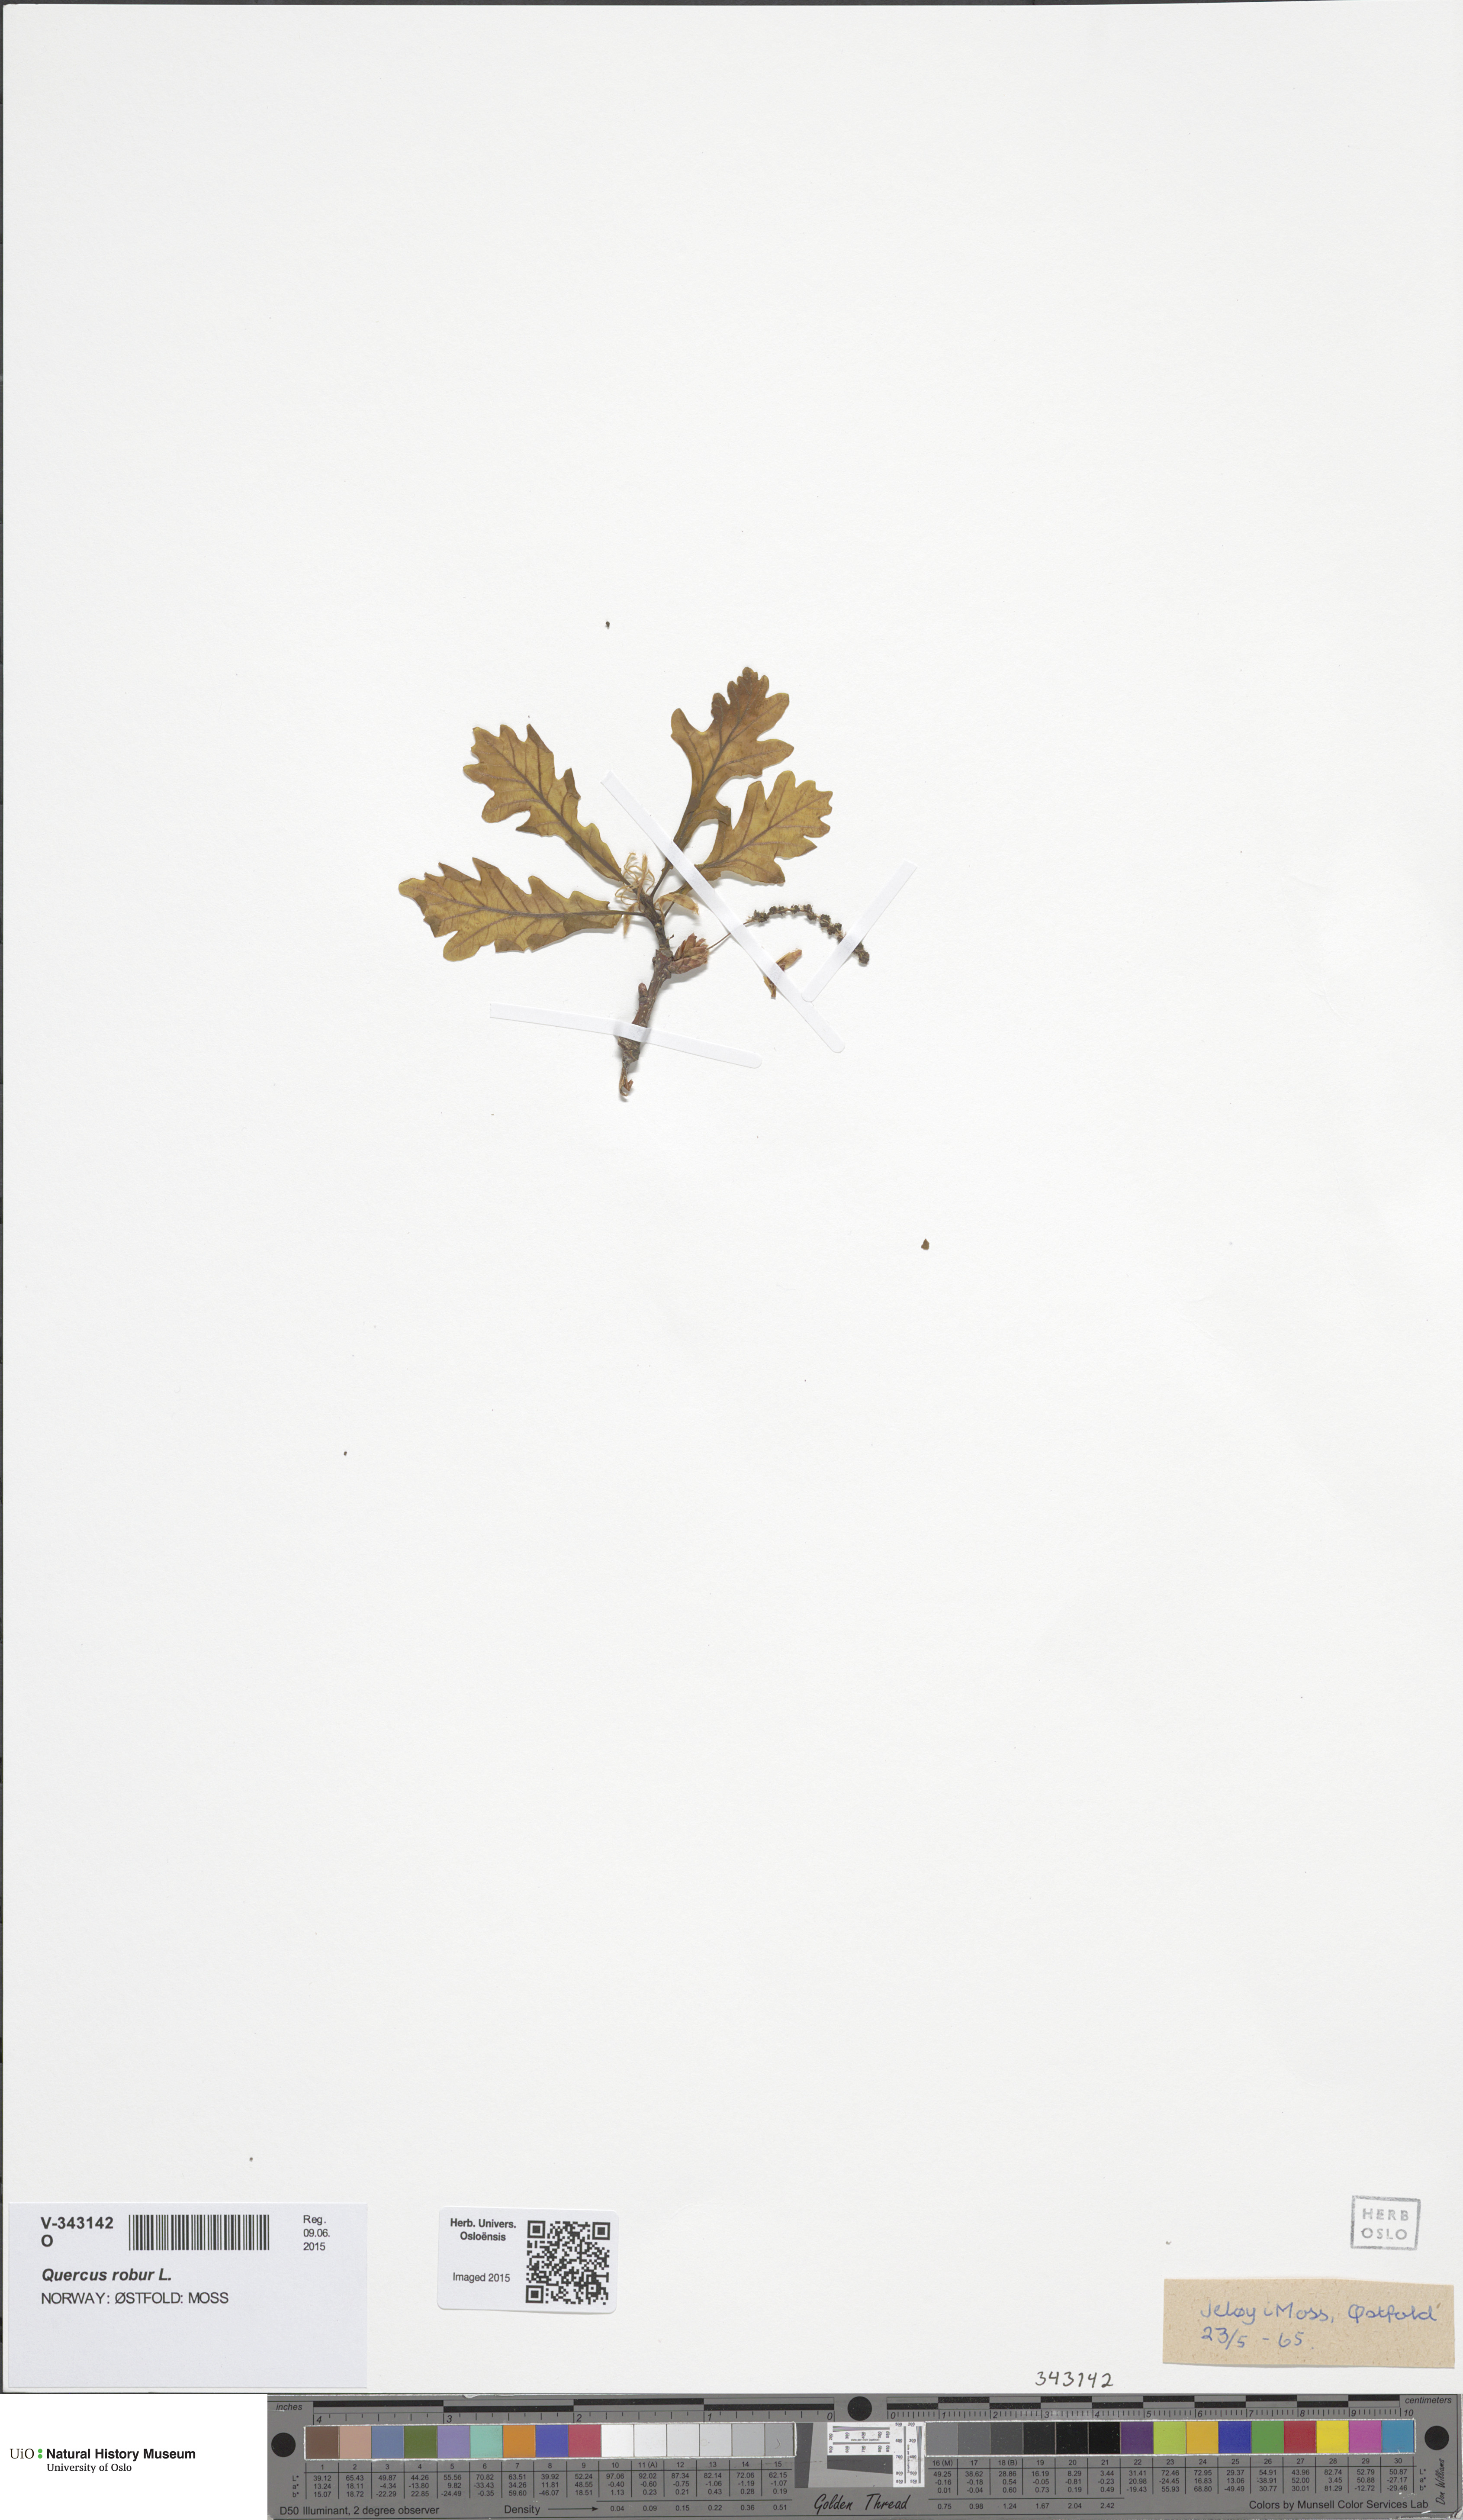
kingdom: Plantae
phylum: Tracheophyta
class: Magnoliopsida
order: Fagales
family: Fagaceae
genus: Quercus
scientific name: Quercus robur
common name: Pedunculate oak
